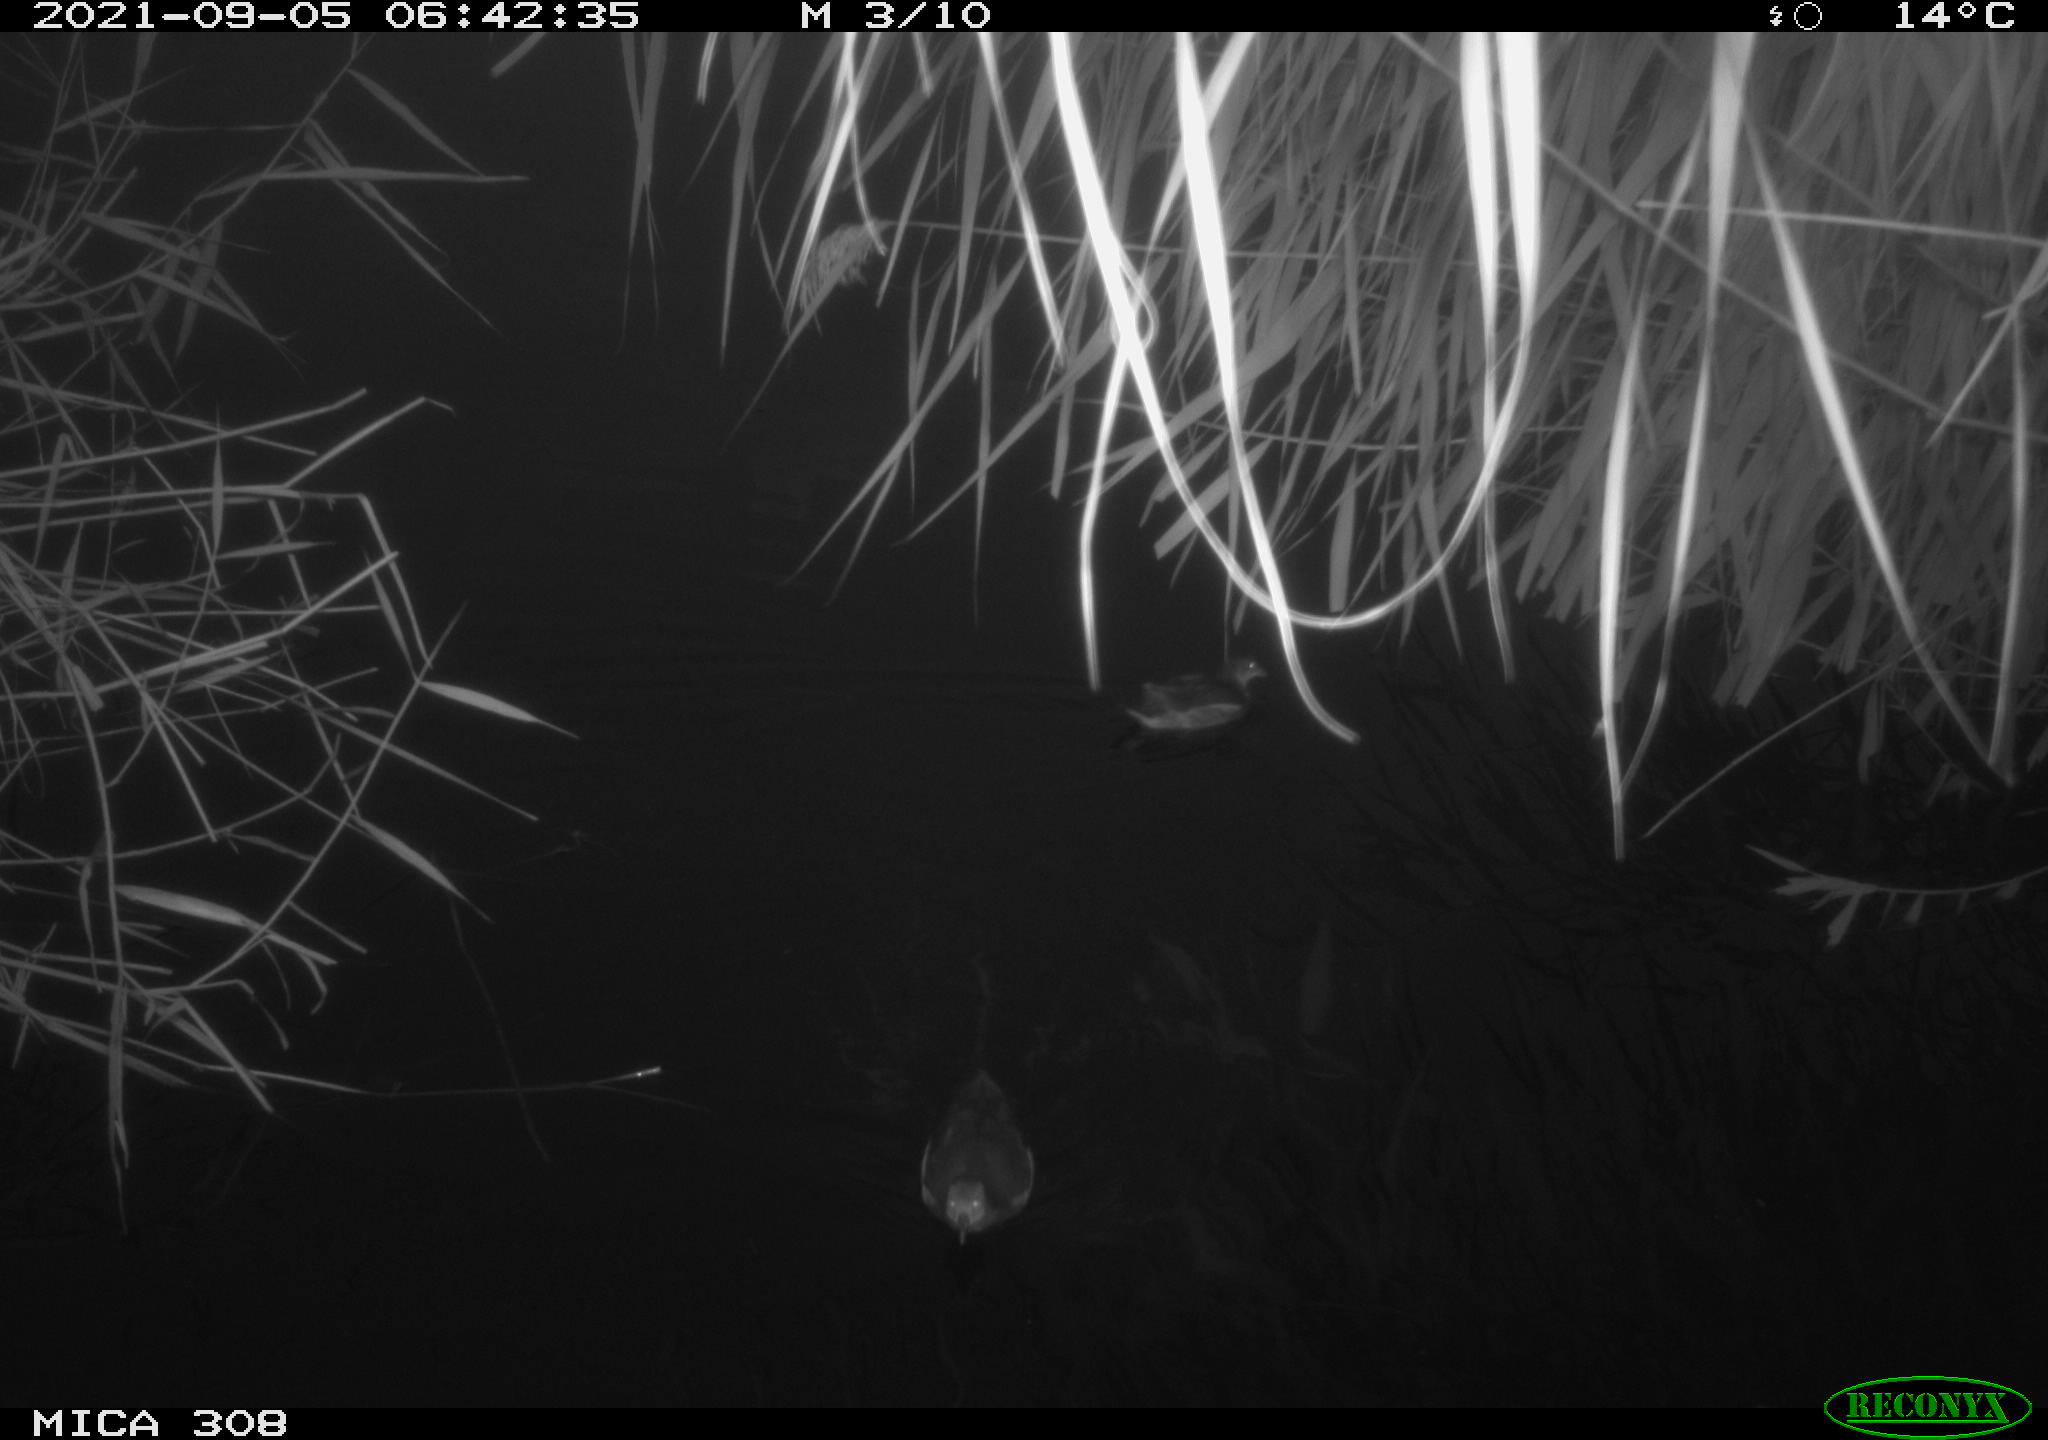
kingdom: Animalia
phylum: Chordata
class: Aves
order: Gruiformes
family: Rallidae
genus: Gallinula
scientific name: Gallinula chloropus
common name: Common moorhen
